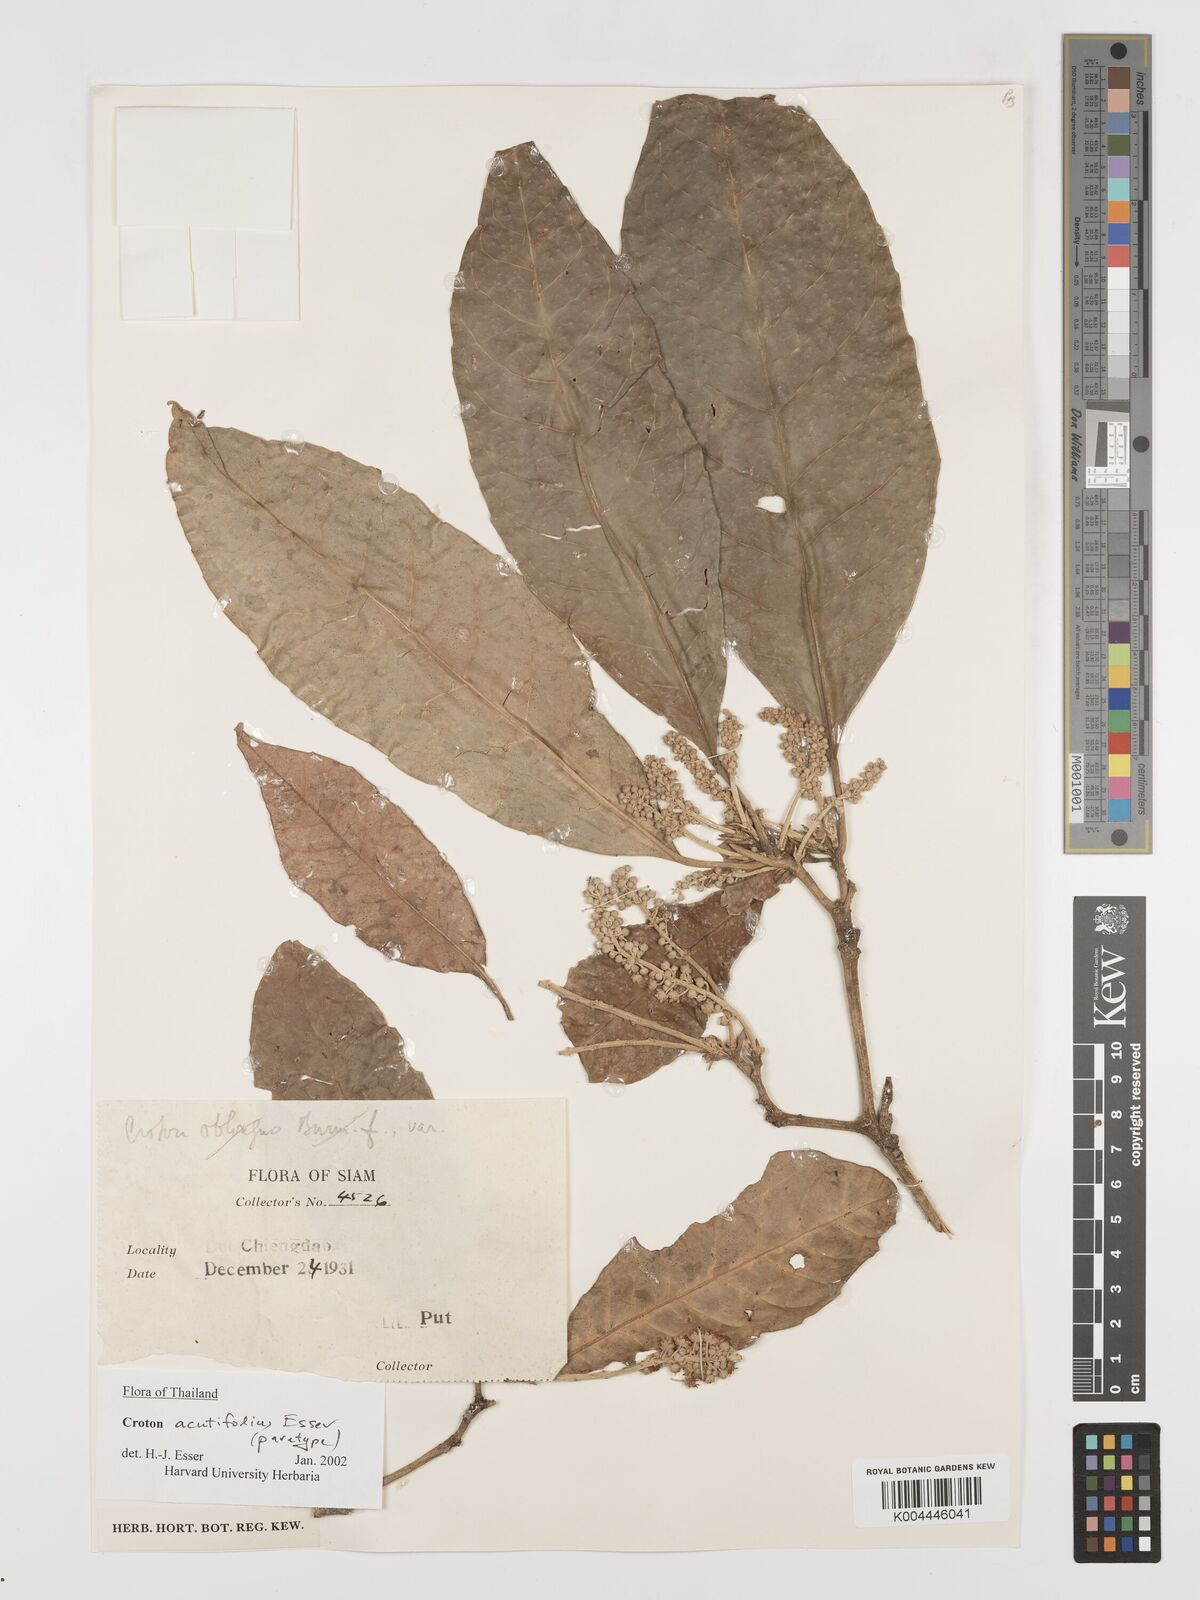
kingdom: Plantae
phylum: Tracheophyta
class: Magnoliopsida
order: Malpighiales
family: Euphorbiaceae
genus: Croton
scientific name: Croton acutifolius
